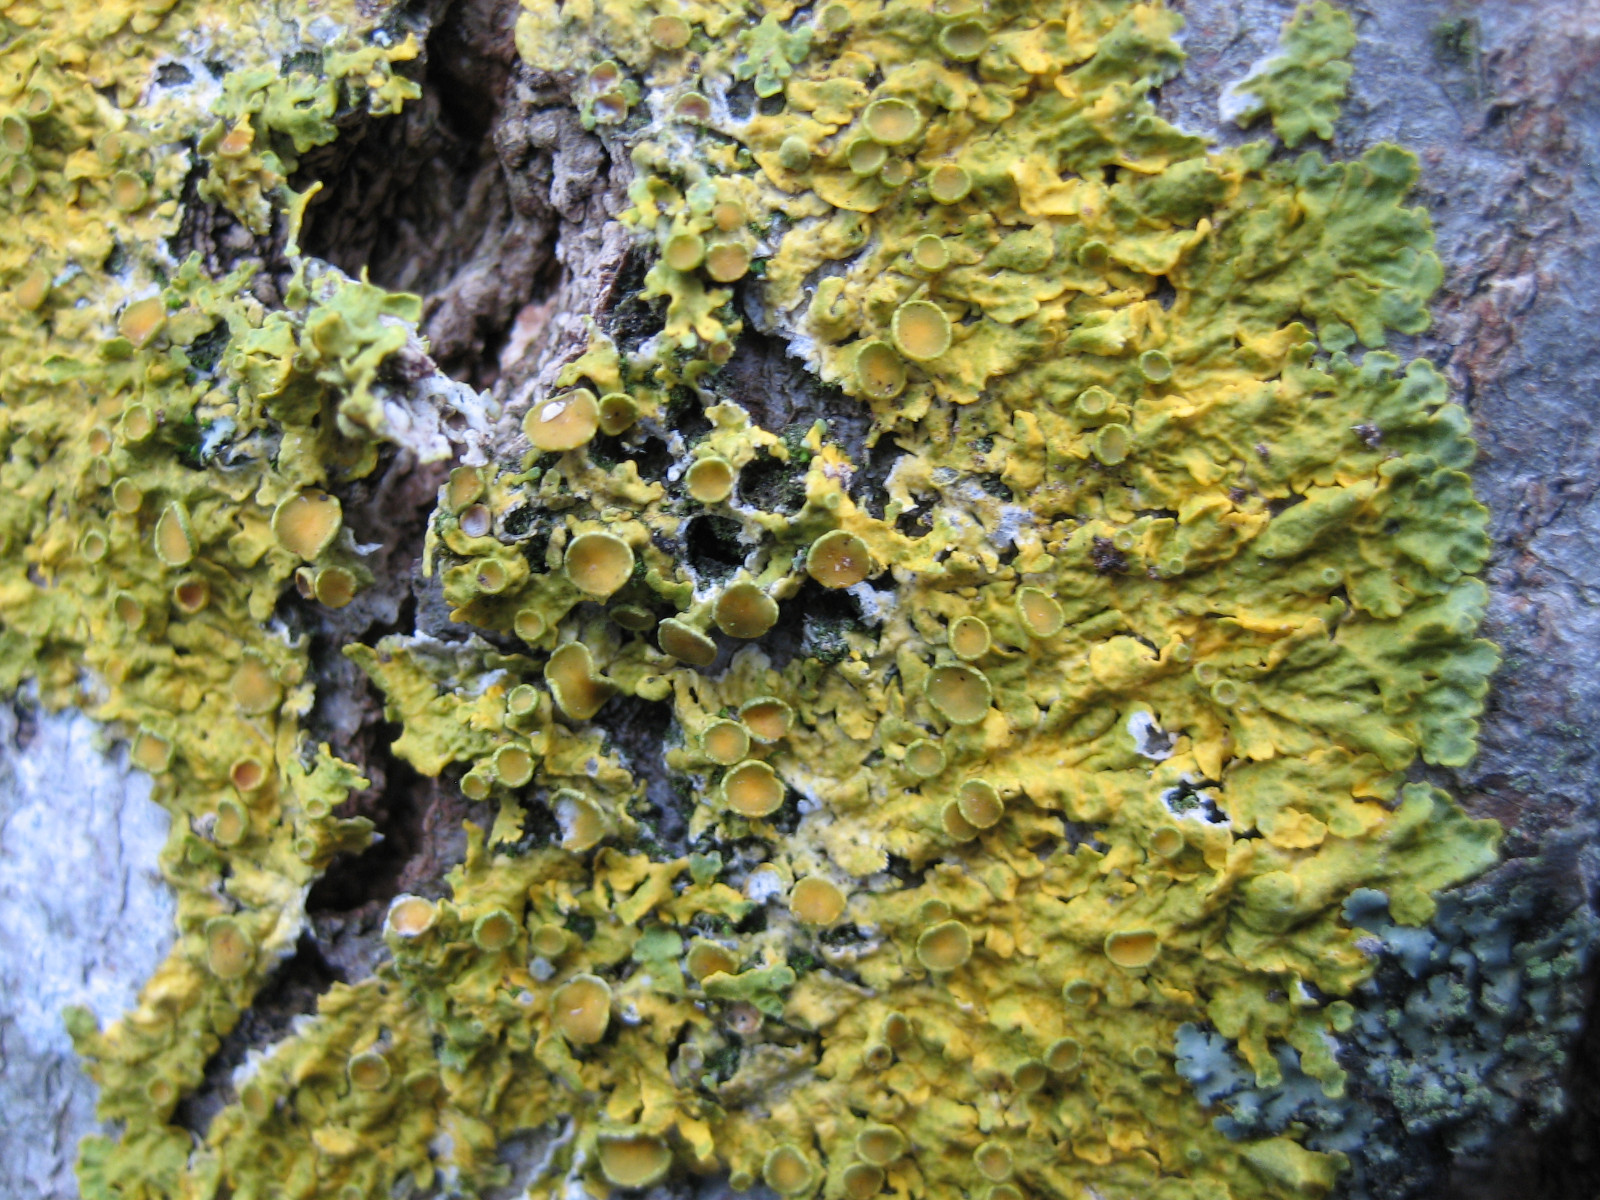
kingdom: Fungi
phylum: Ascomycota
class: Lecanoromycetes
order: Teloschistales
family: Teloschistaceae
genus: Xanthoria
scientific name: Xanthoria parietina
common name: almindelig væggelav
